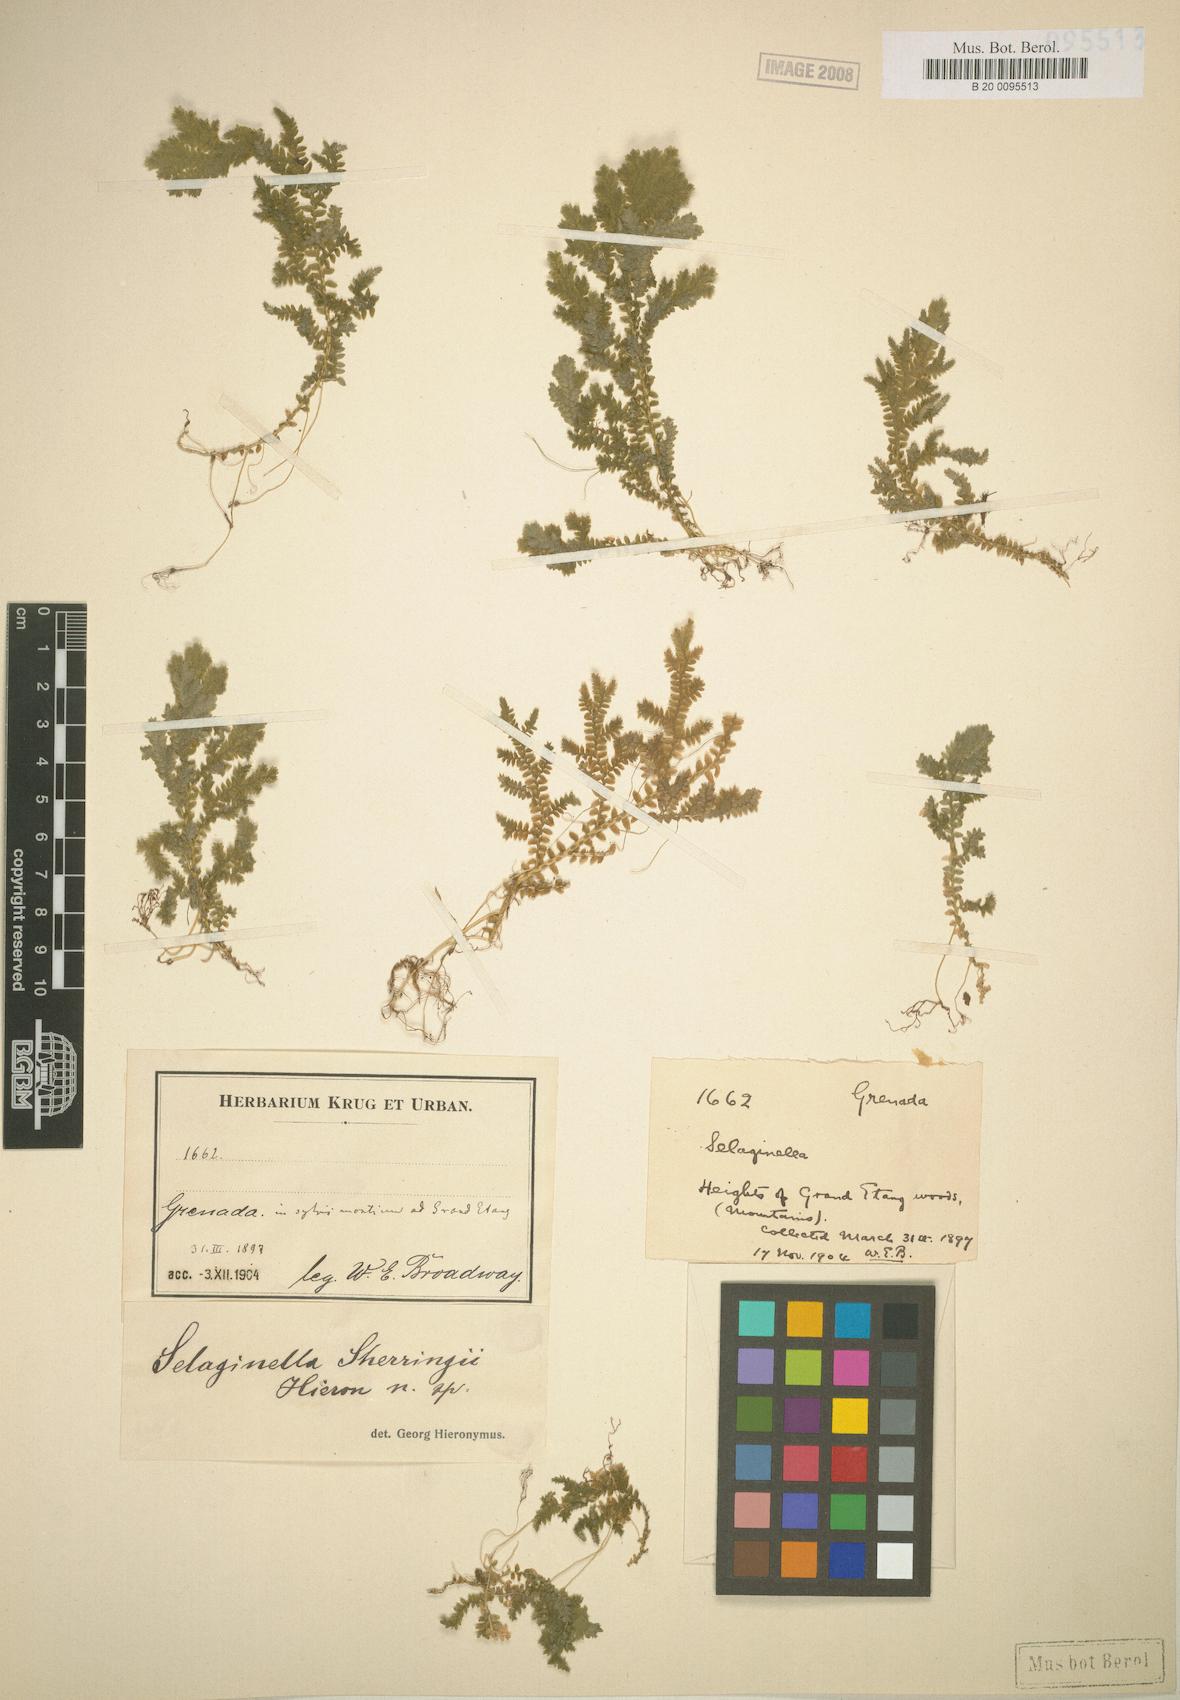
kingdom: Plantae
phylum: Tracheophyta
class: Lycopodiopsida
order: Selaginellales
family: Selaginellaceae
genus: Selaginella
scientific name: Selaginella substipitata
